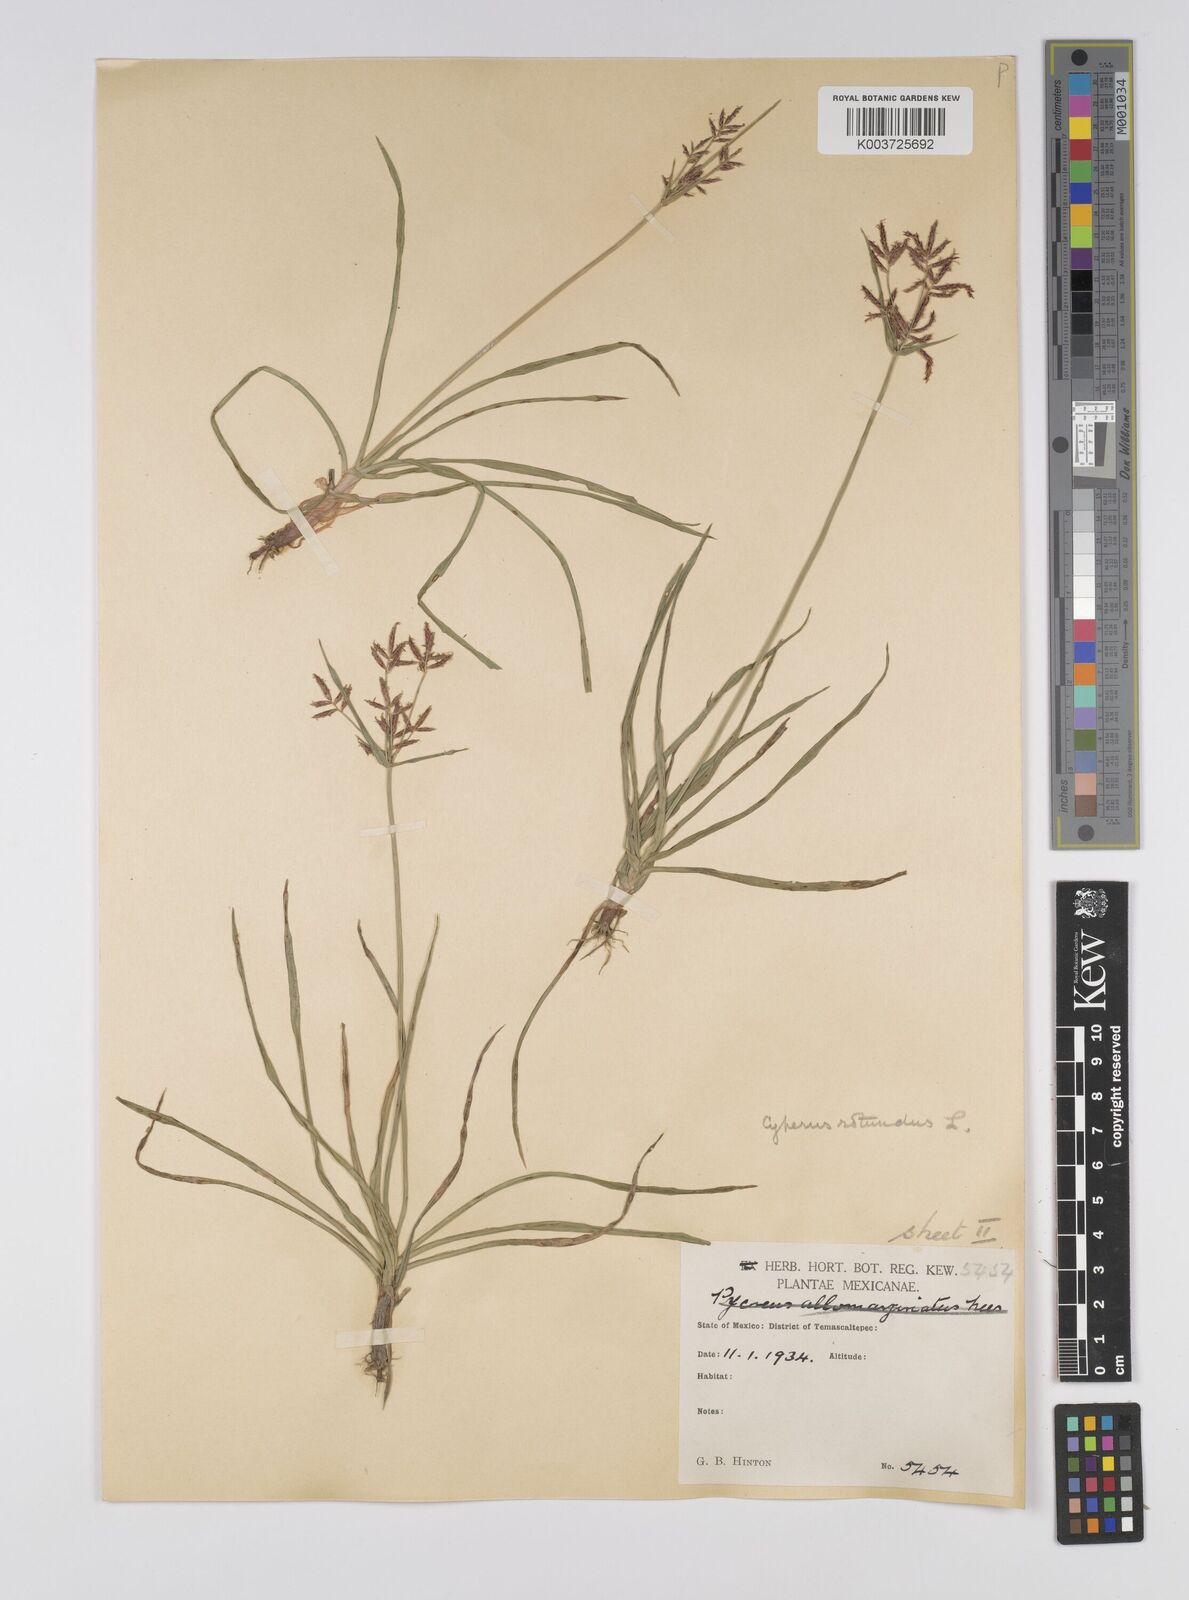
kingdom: Plantae
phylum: Tracheophyta
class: Liliopsida
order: Poales
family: Cyperaceae
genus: Cyperus
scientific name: Cyperus rotundus
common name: Nutgrass
